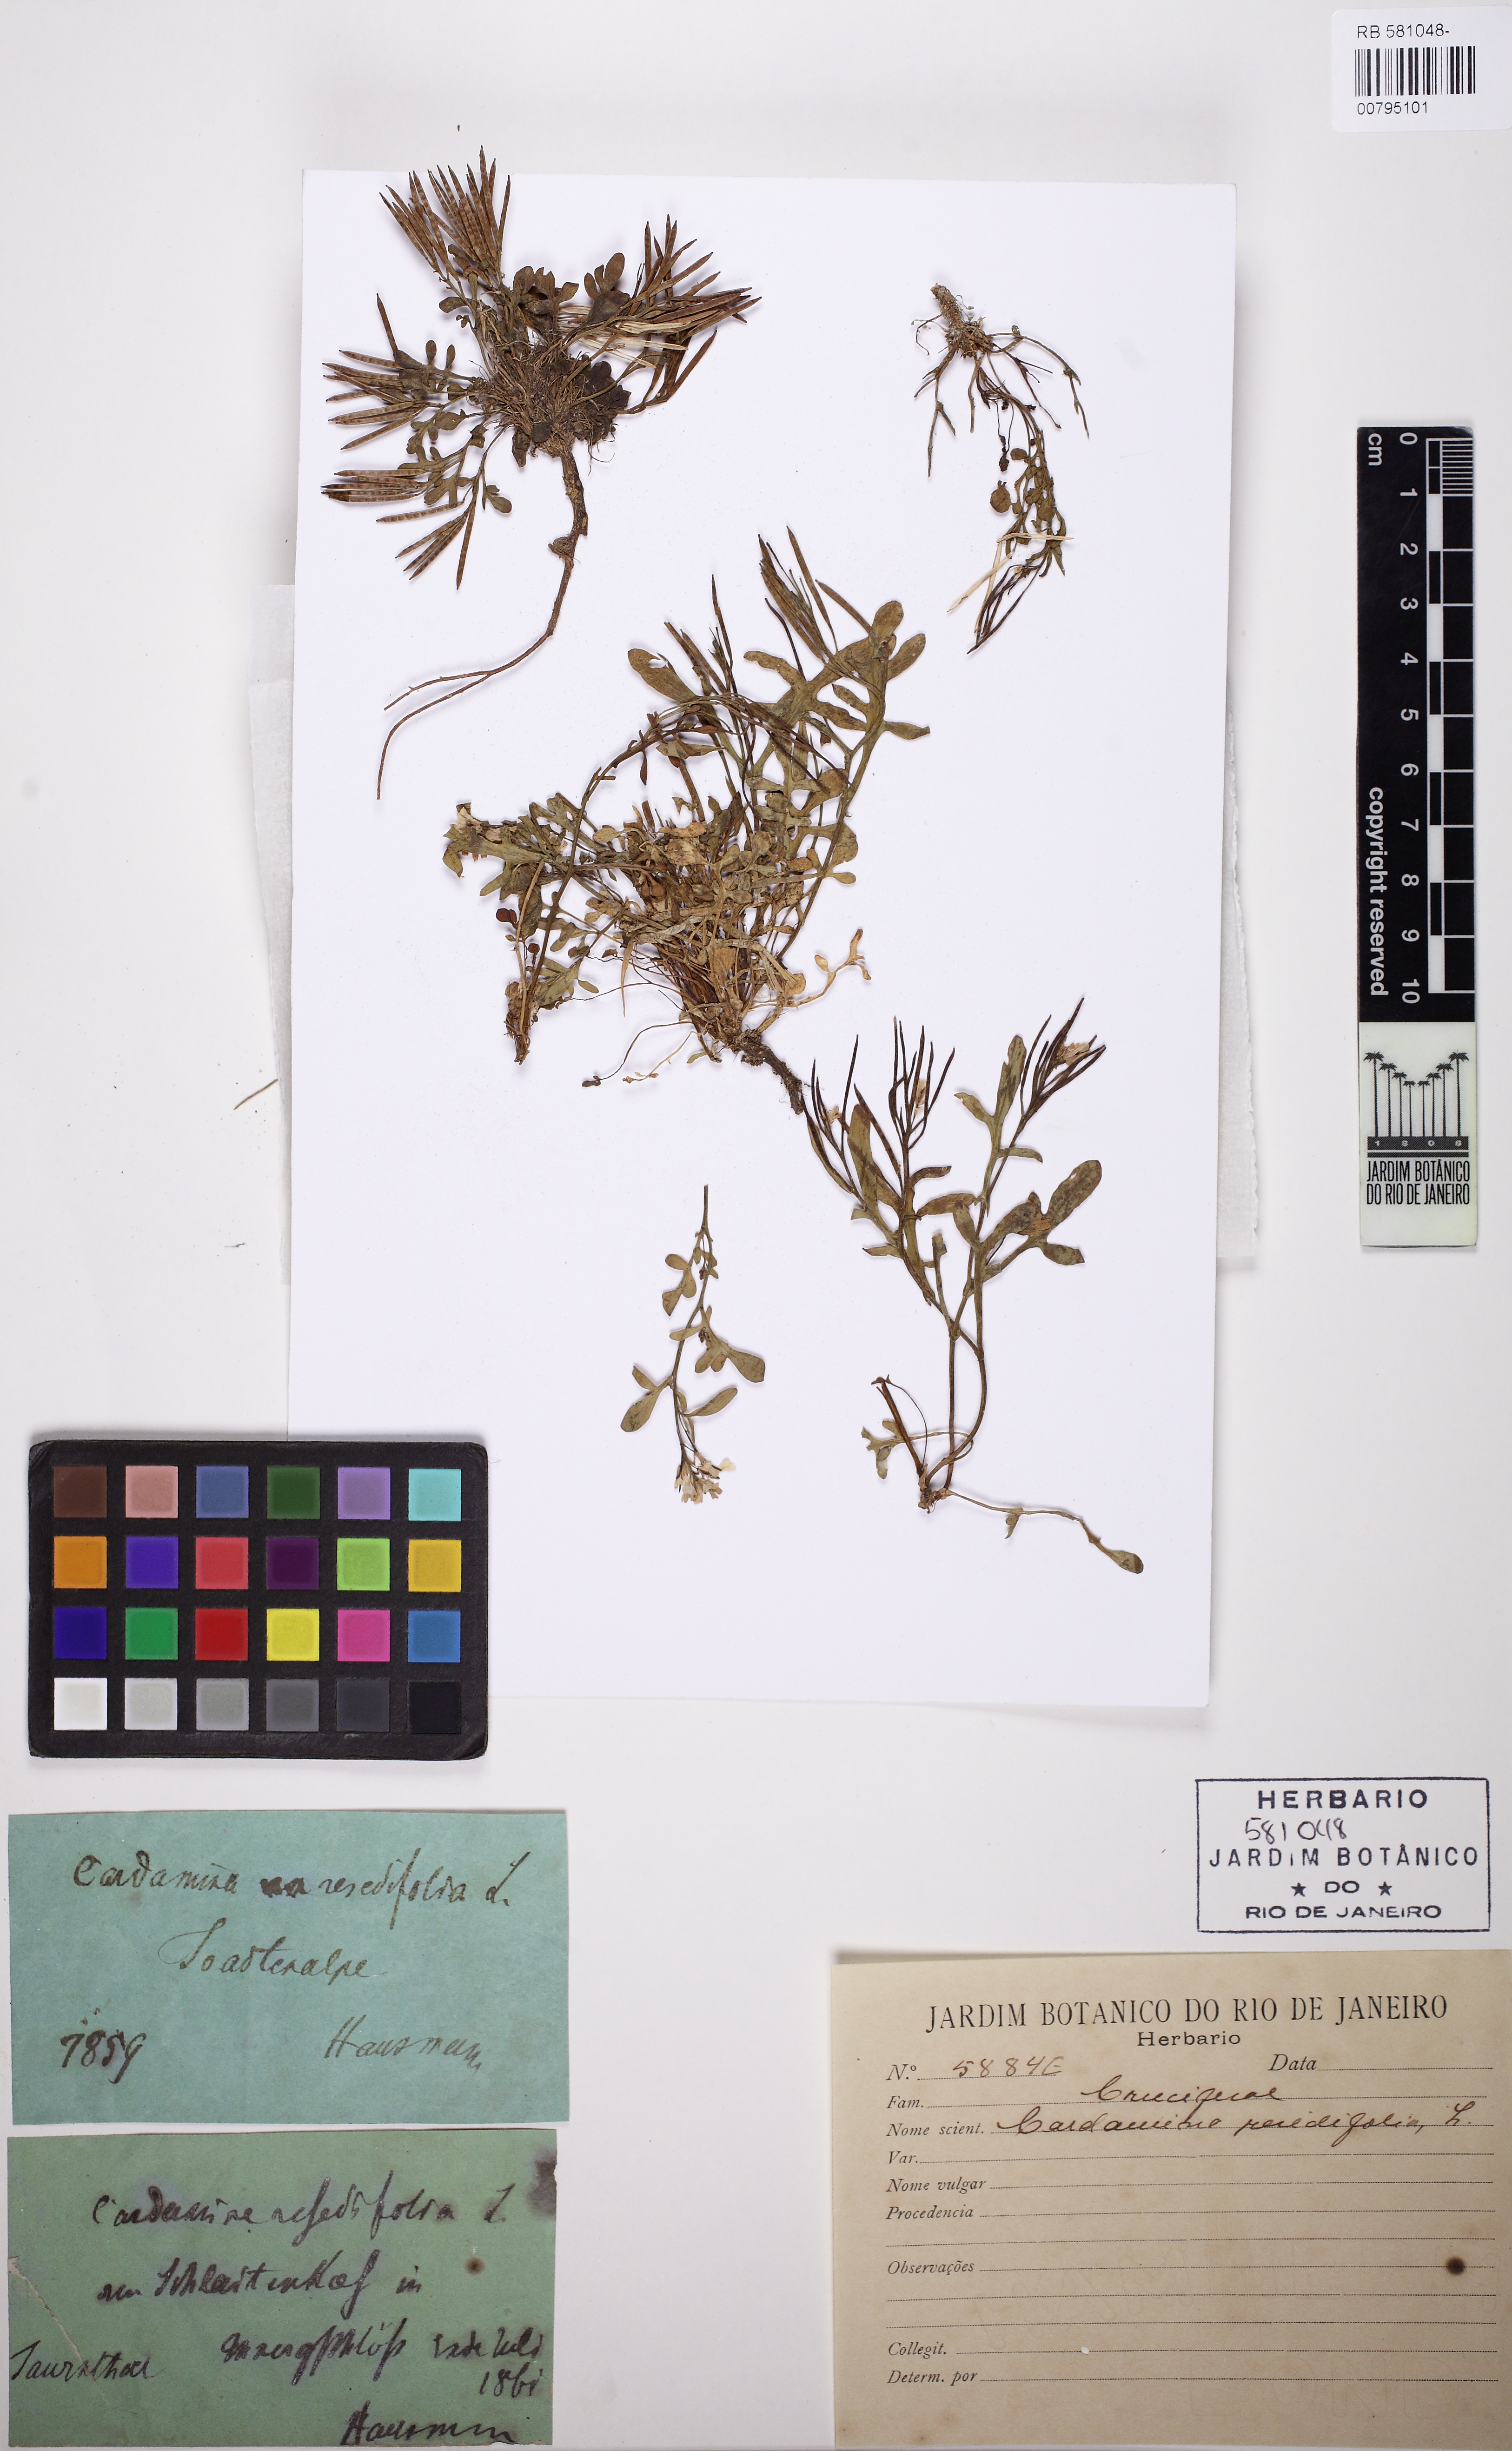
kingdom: Plantae
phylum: Tracheophyta
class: Magnoliopsida
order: Brassicales
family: Brassicaceae
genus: Cardamine
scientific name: Cardamine resedifolia
